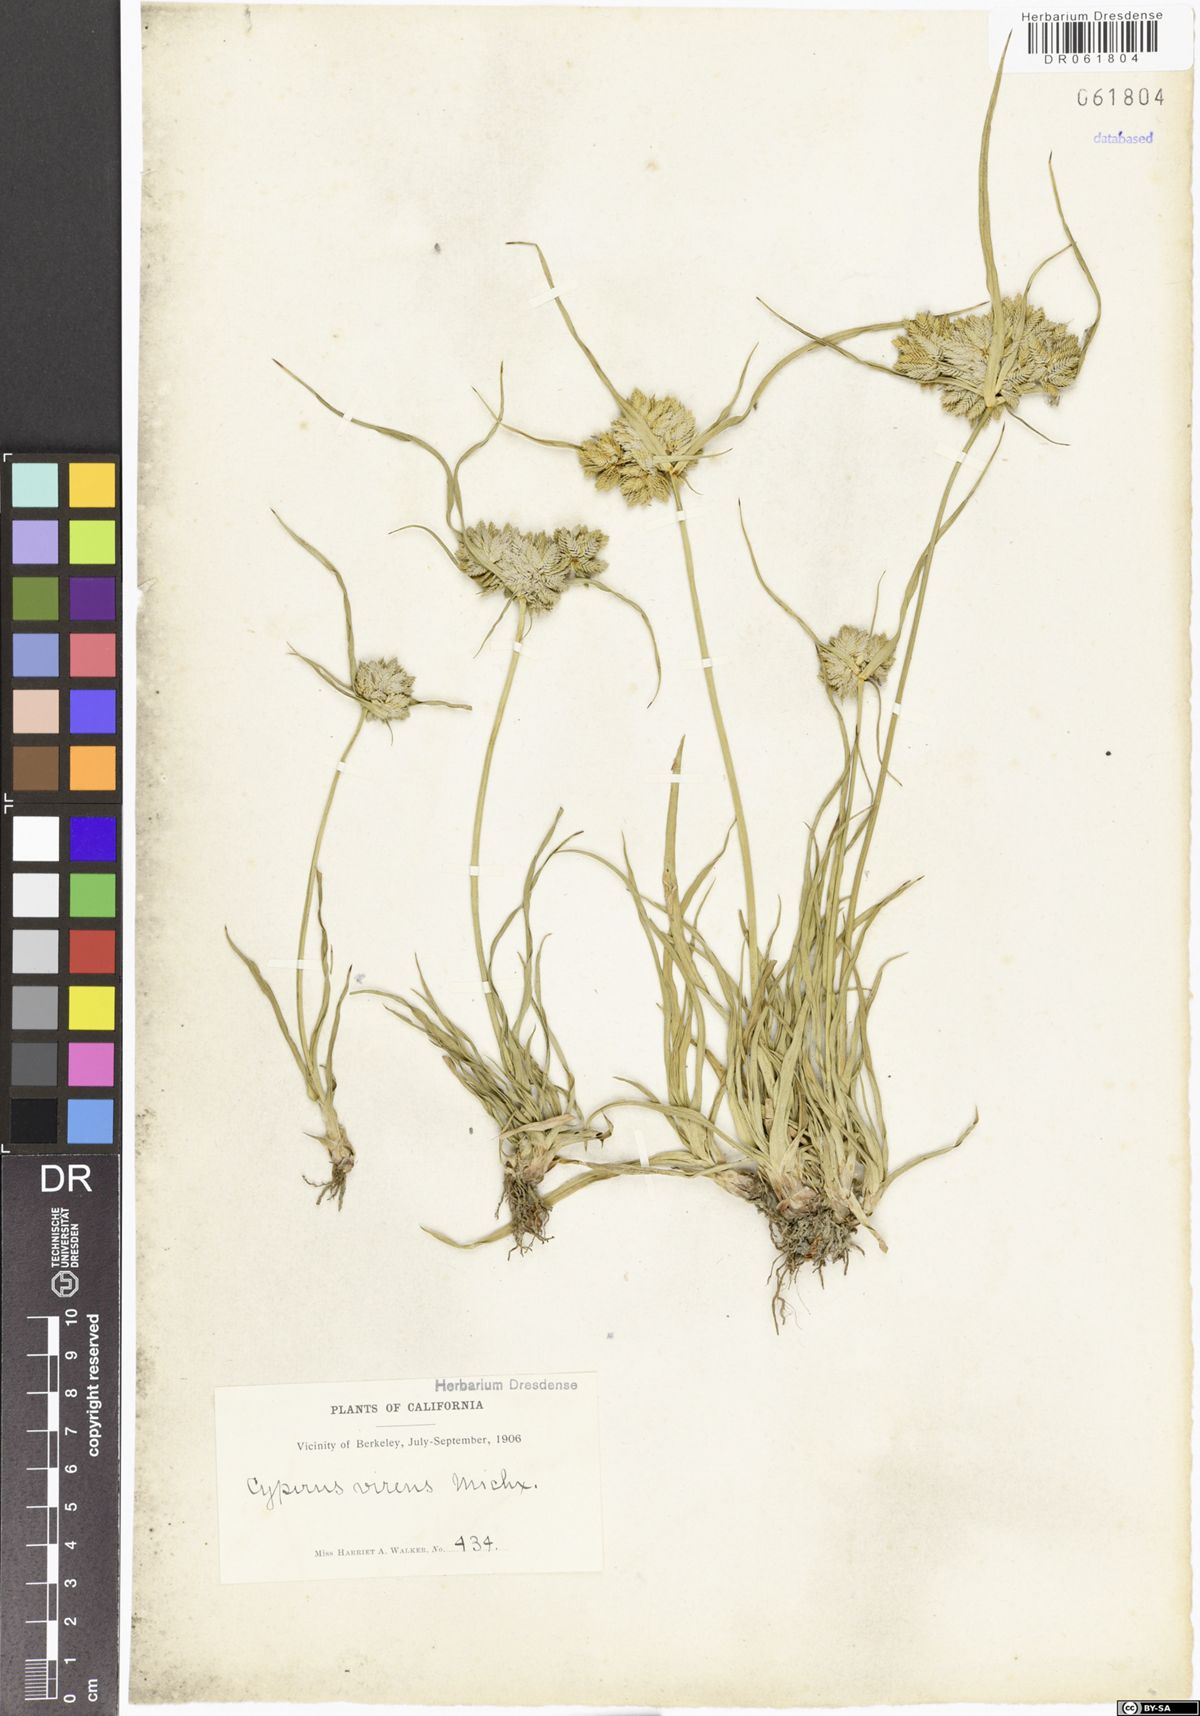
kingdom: Plantae
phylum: Tracheophyta
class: Liliopsida
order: Poales
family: Cyperaceae
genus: Cyperus
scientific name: Cyperus virens
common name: Green flatsedge
